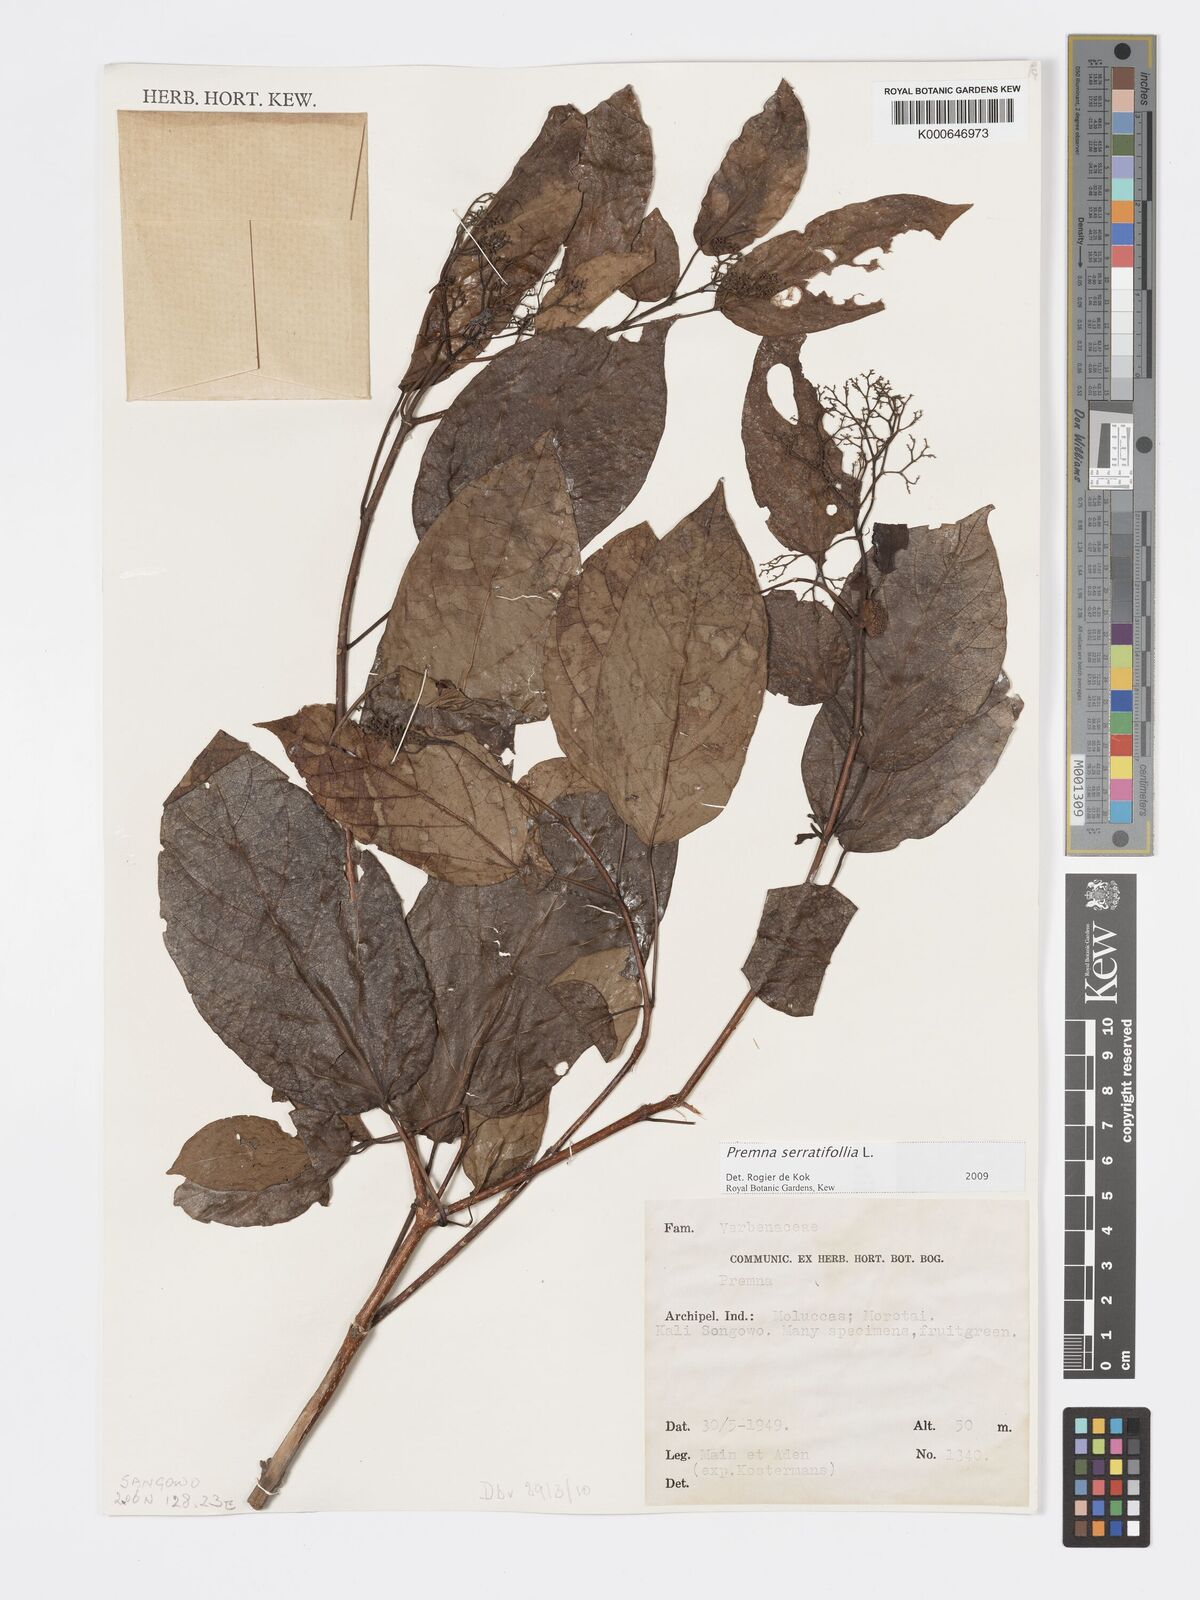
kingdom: Plantae
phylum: Tracheophyta
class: Magnoliopsida
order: Lamiales
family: Lamiaceae
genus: Premna
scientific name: Premna serratifolia
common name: Bastard guelder
